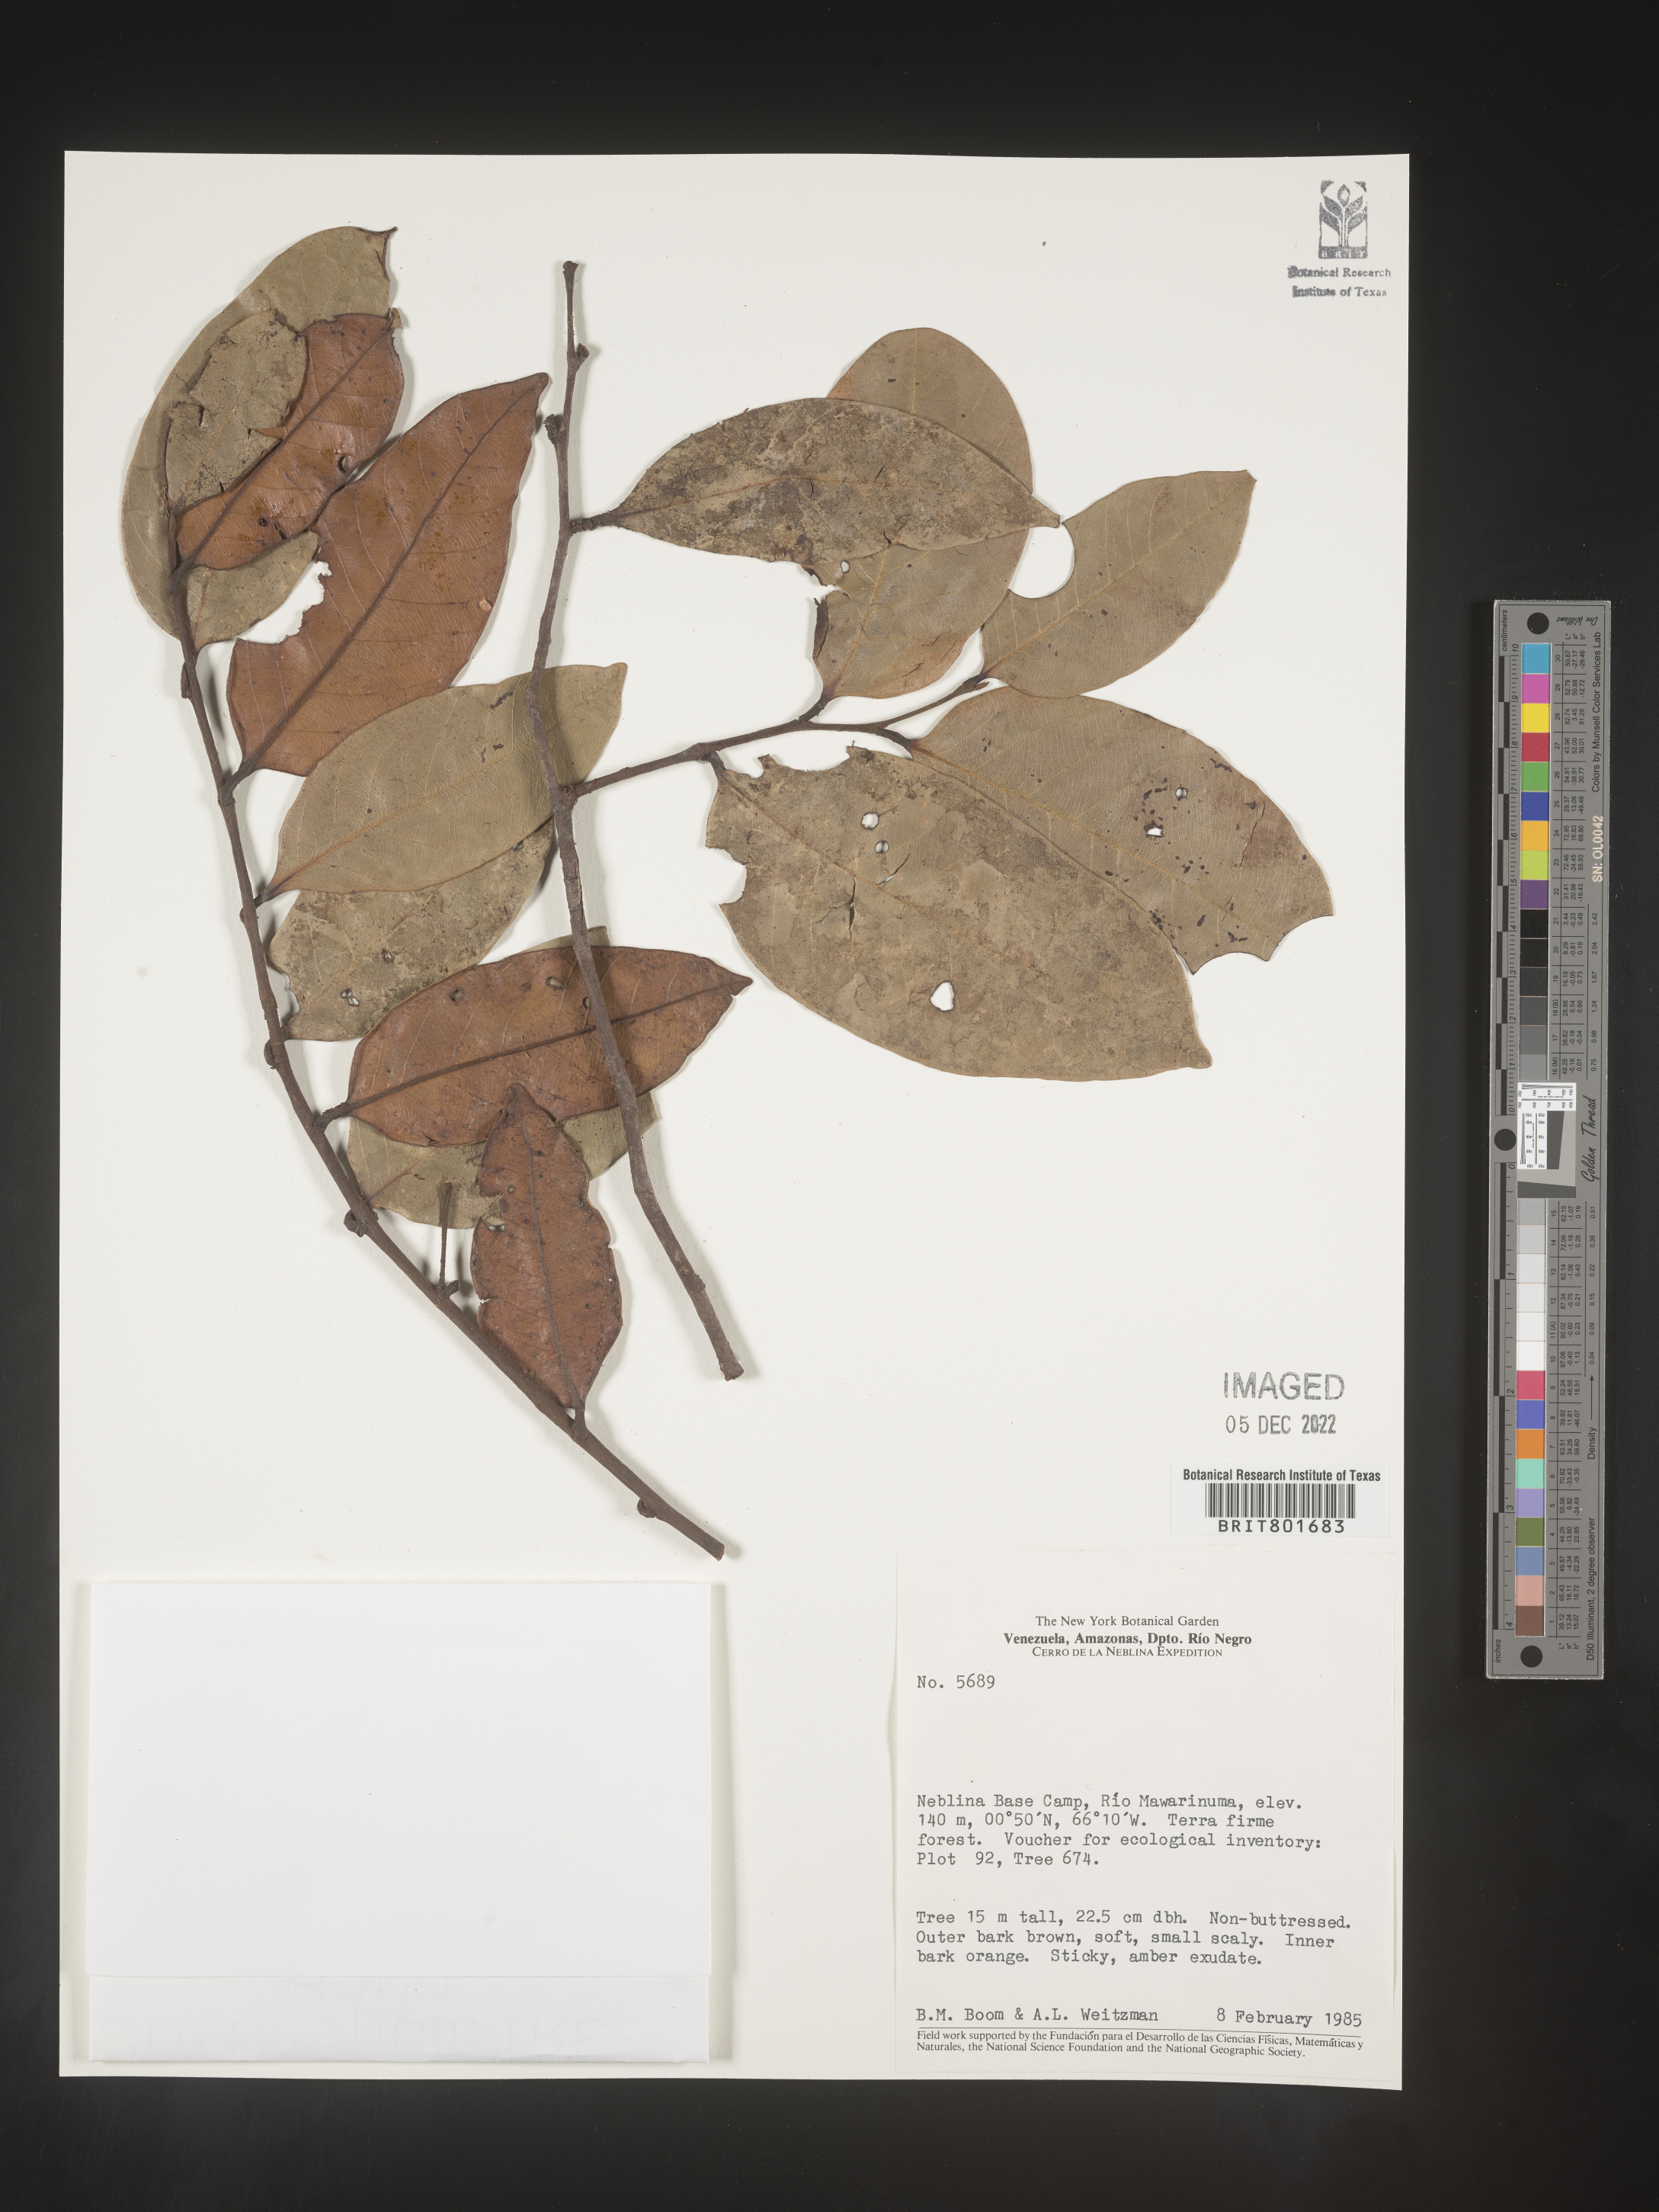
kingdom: Plantae
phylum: Tracheophyta
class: Magnoliopsida
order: Malpighiales
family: Clusiaceae
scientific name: Clusiaceae
